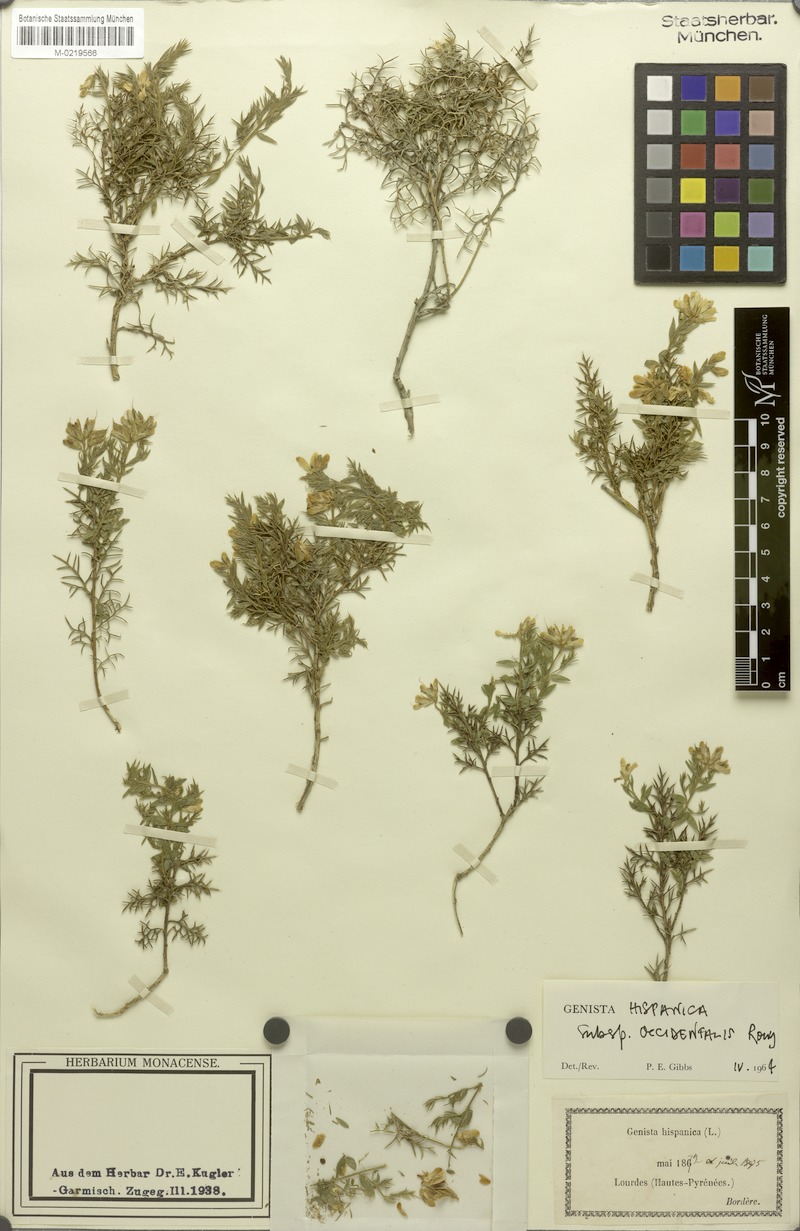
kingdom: Plantae
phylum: Tracheophyta
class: Magnoliopsida
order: Fabales
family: Fabaceae
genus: Genista
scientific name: Genista hispanica
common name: Spanish gorse
